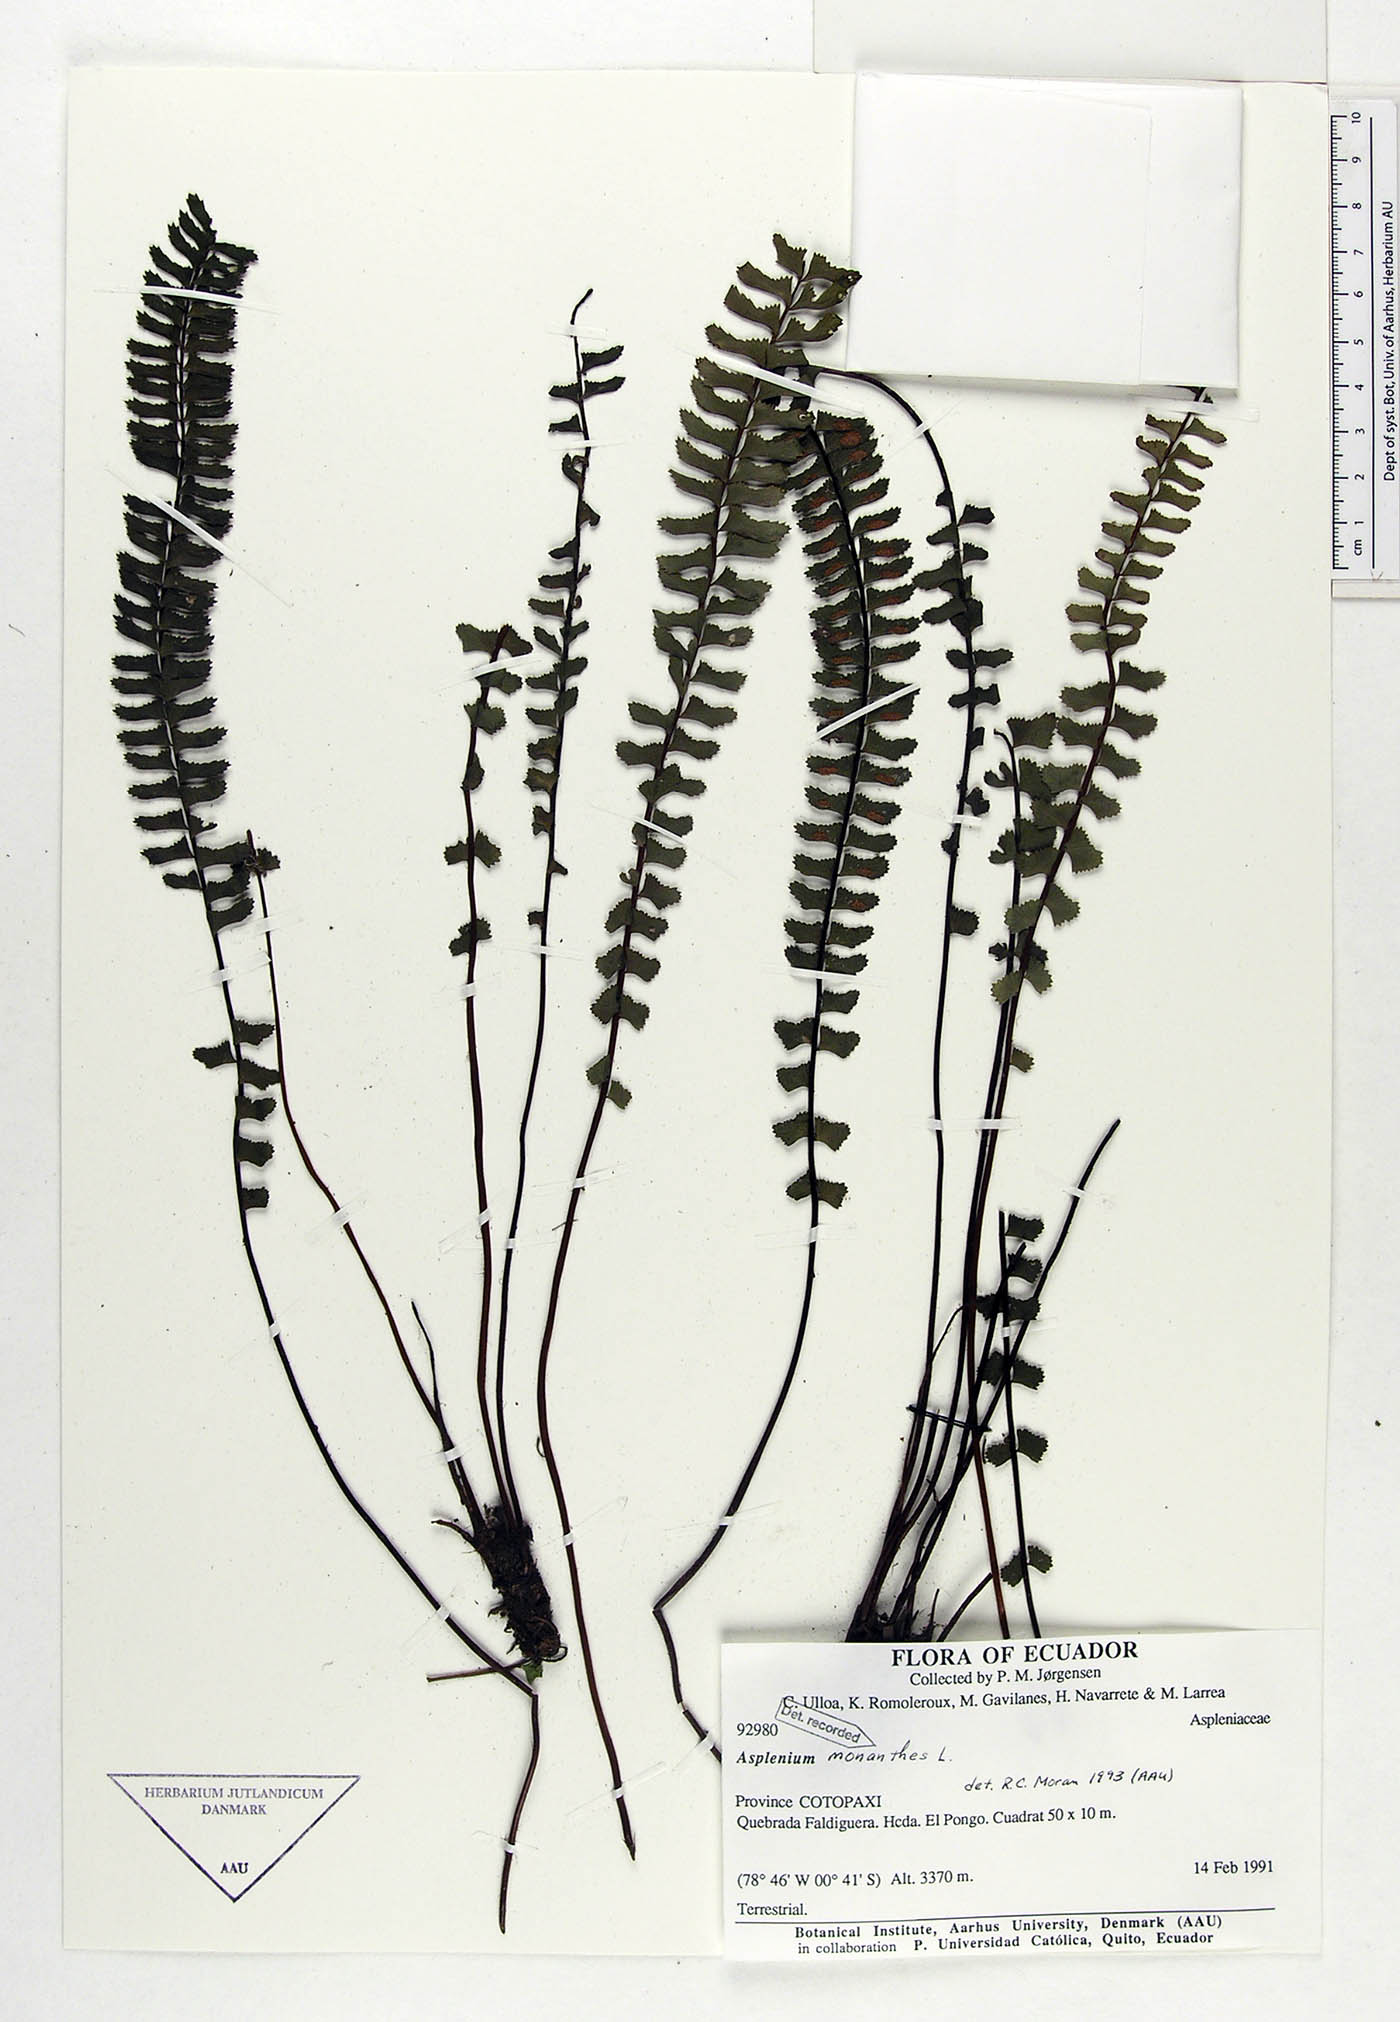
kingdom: Plantae
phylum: Tracheophyta
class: Polypodiopsida
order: Polypodiales
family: Aspleniaceae
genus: Asplenium
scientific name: Asplenium monanthes
